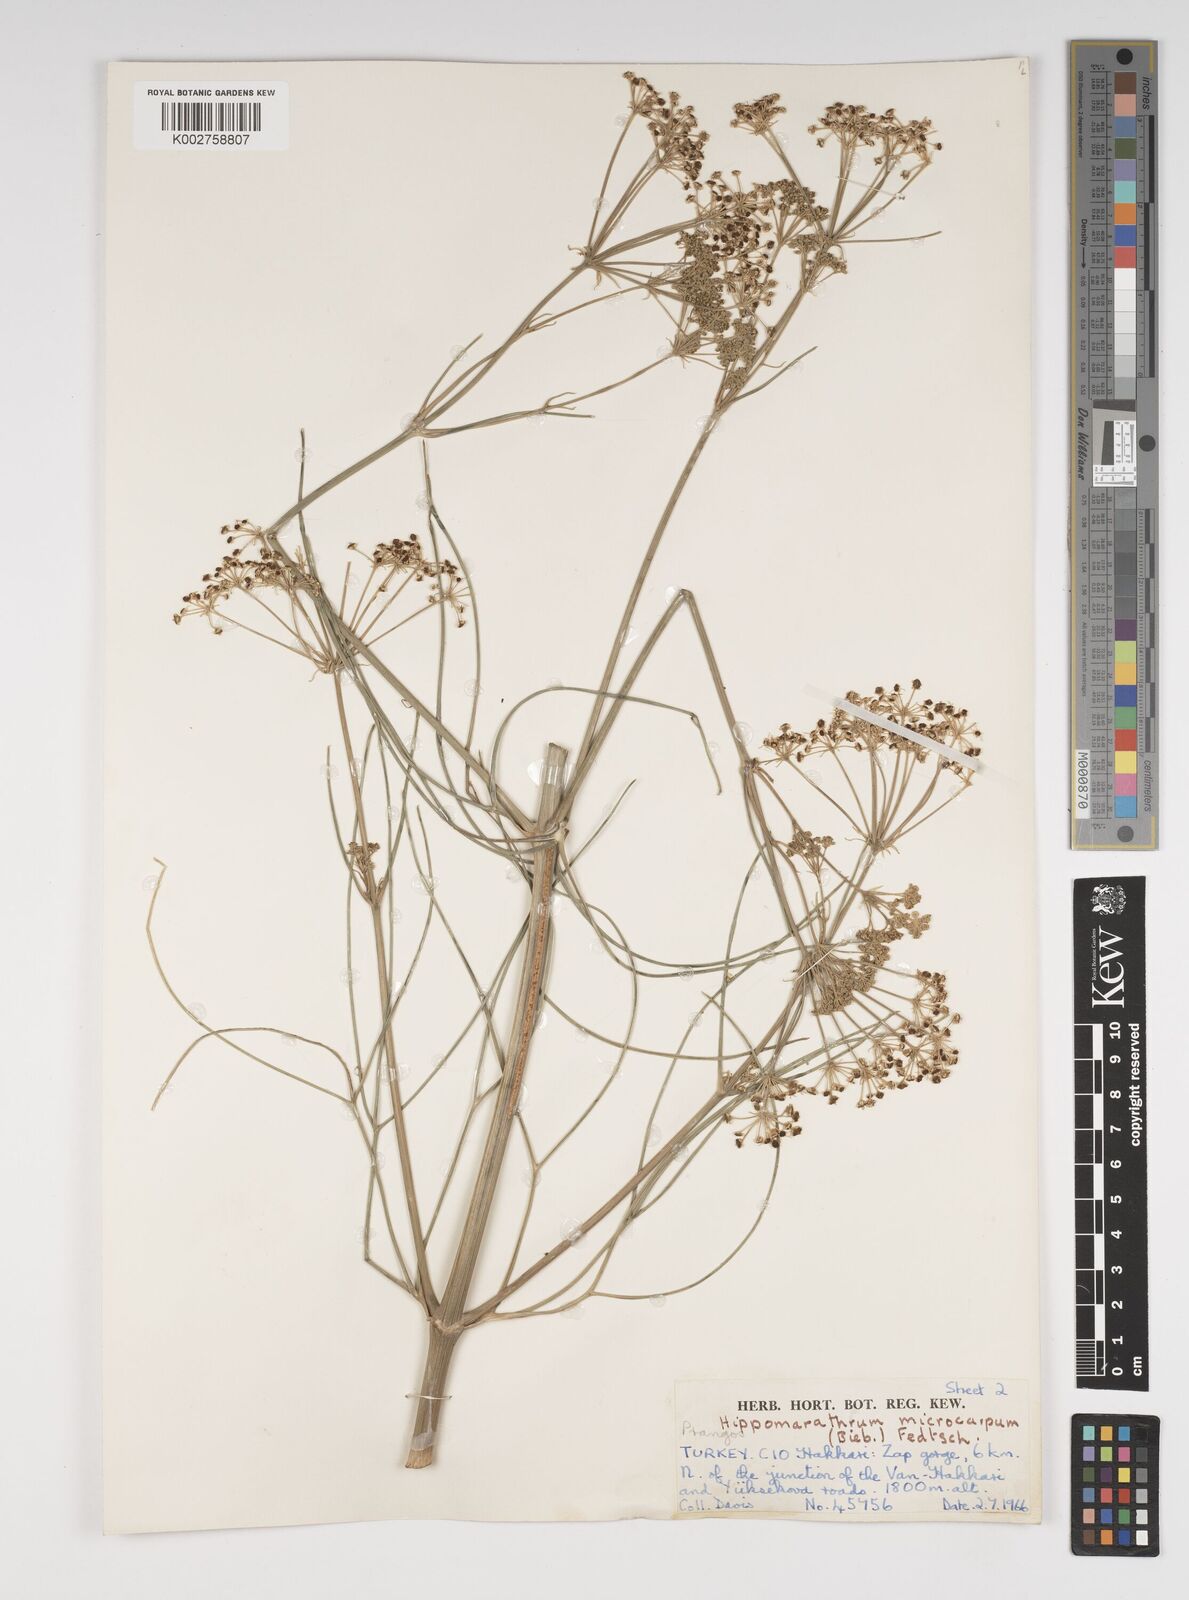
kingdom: Plantae
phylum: Tracheophyta
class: Magnoliopsida
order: Apiales
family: Apiaceae
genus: Bilacunaria
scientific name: Bilacunaria microcarpa
